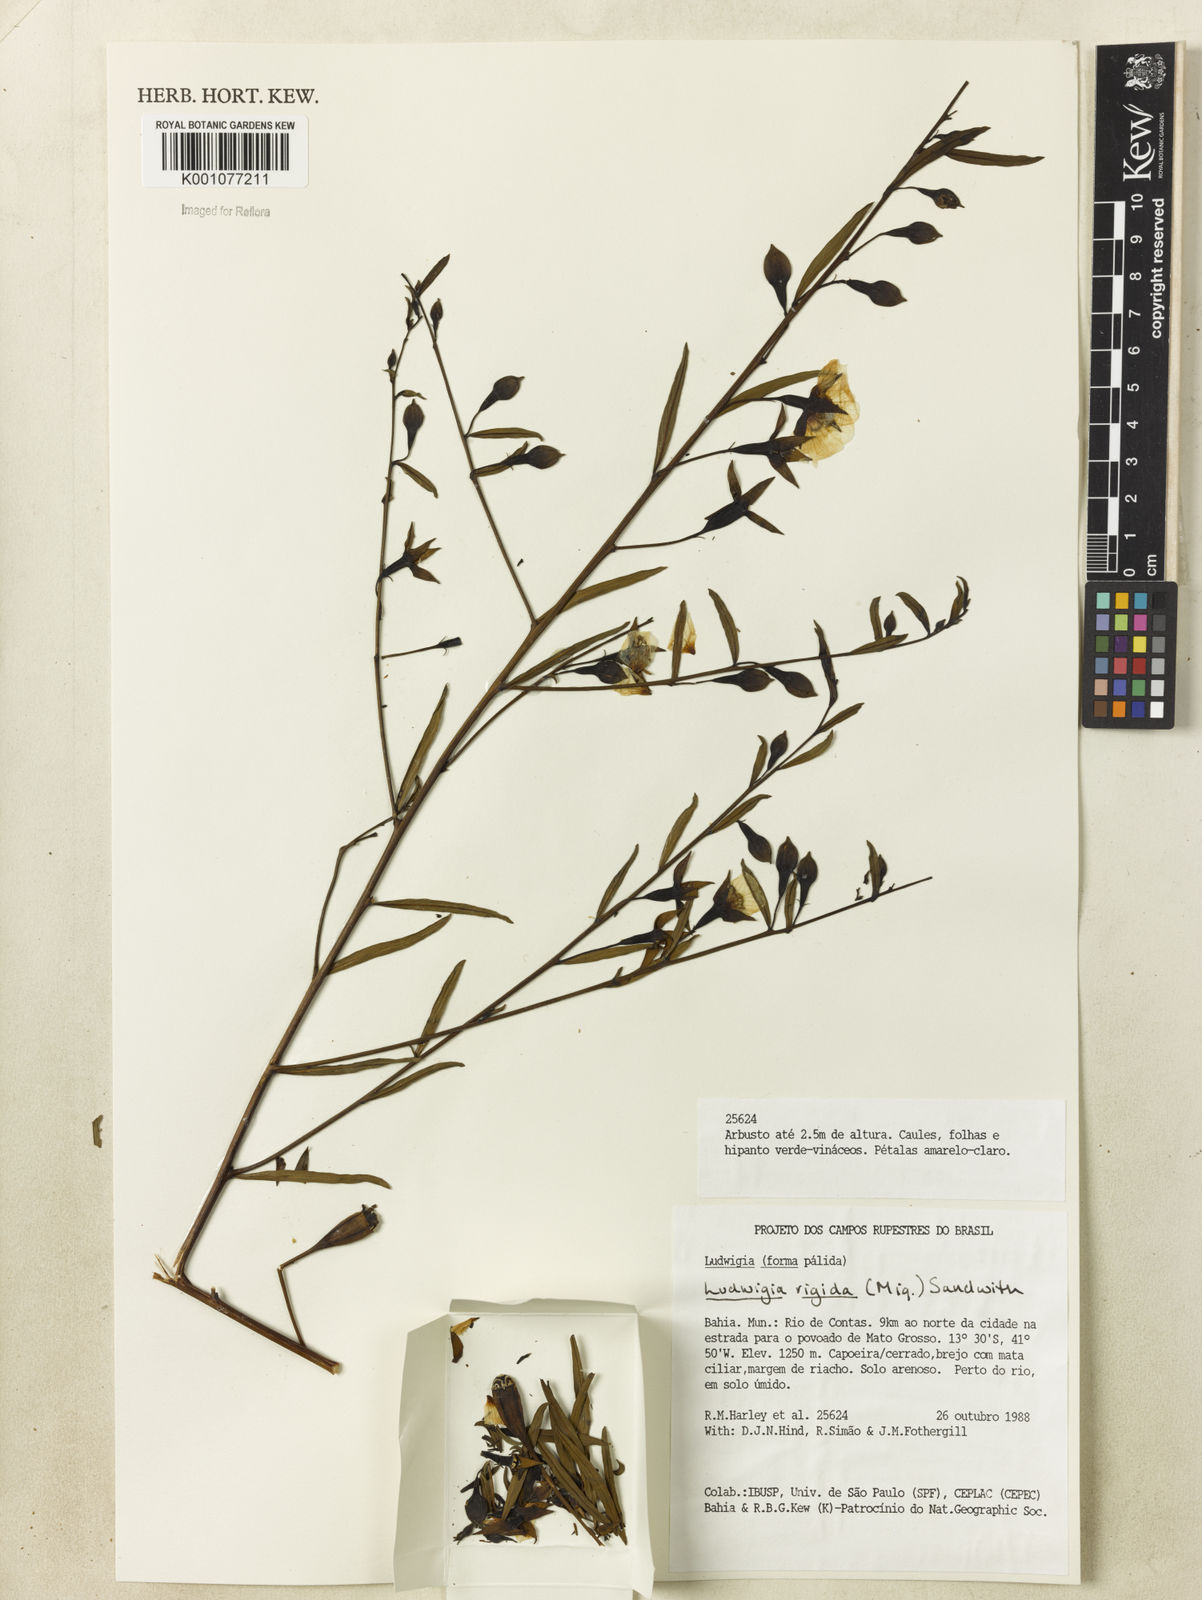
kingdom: Plantae
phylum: Tracheophyta
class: Magnoliopsida
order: Myrtales
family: Onagraceae
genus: Ludwigia
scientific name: Ludwigia rigida
